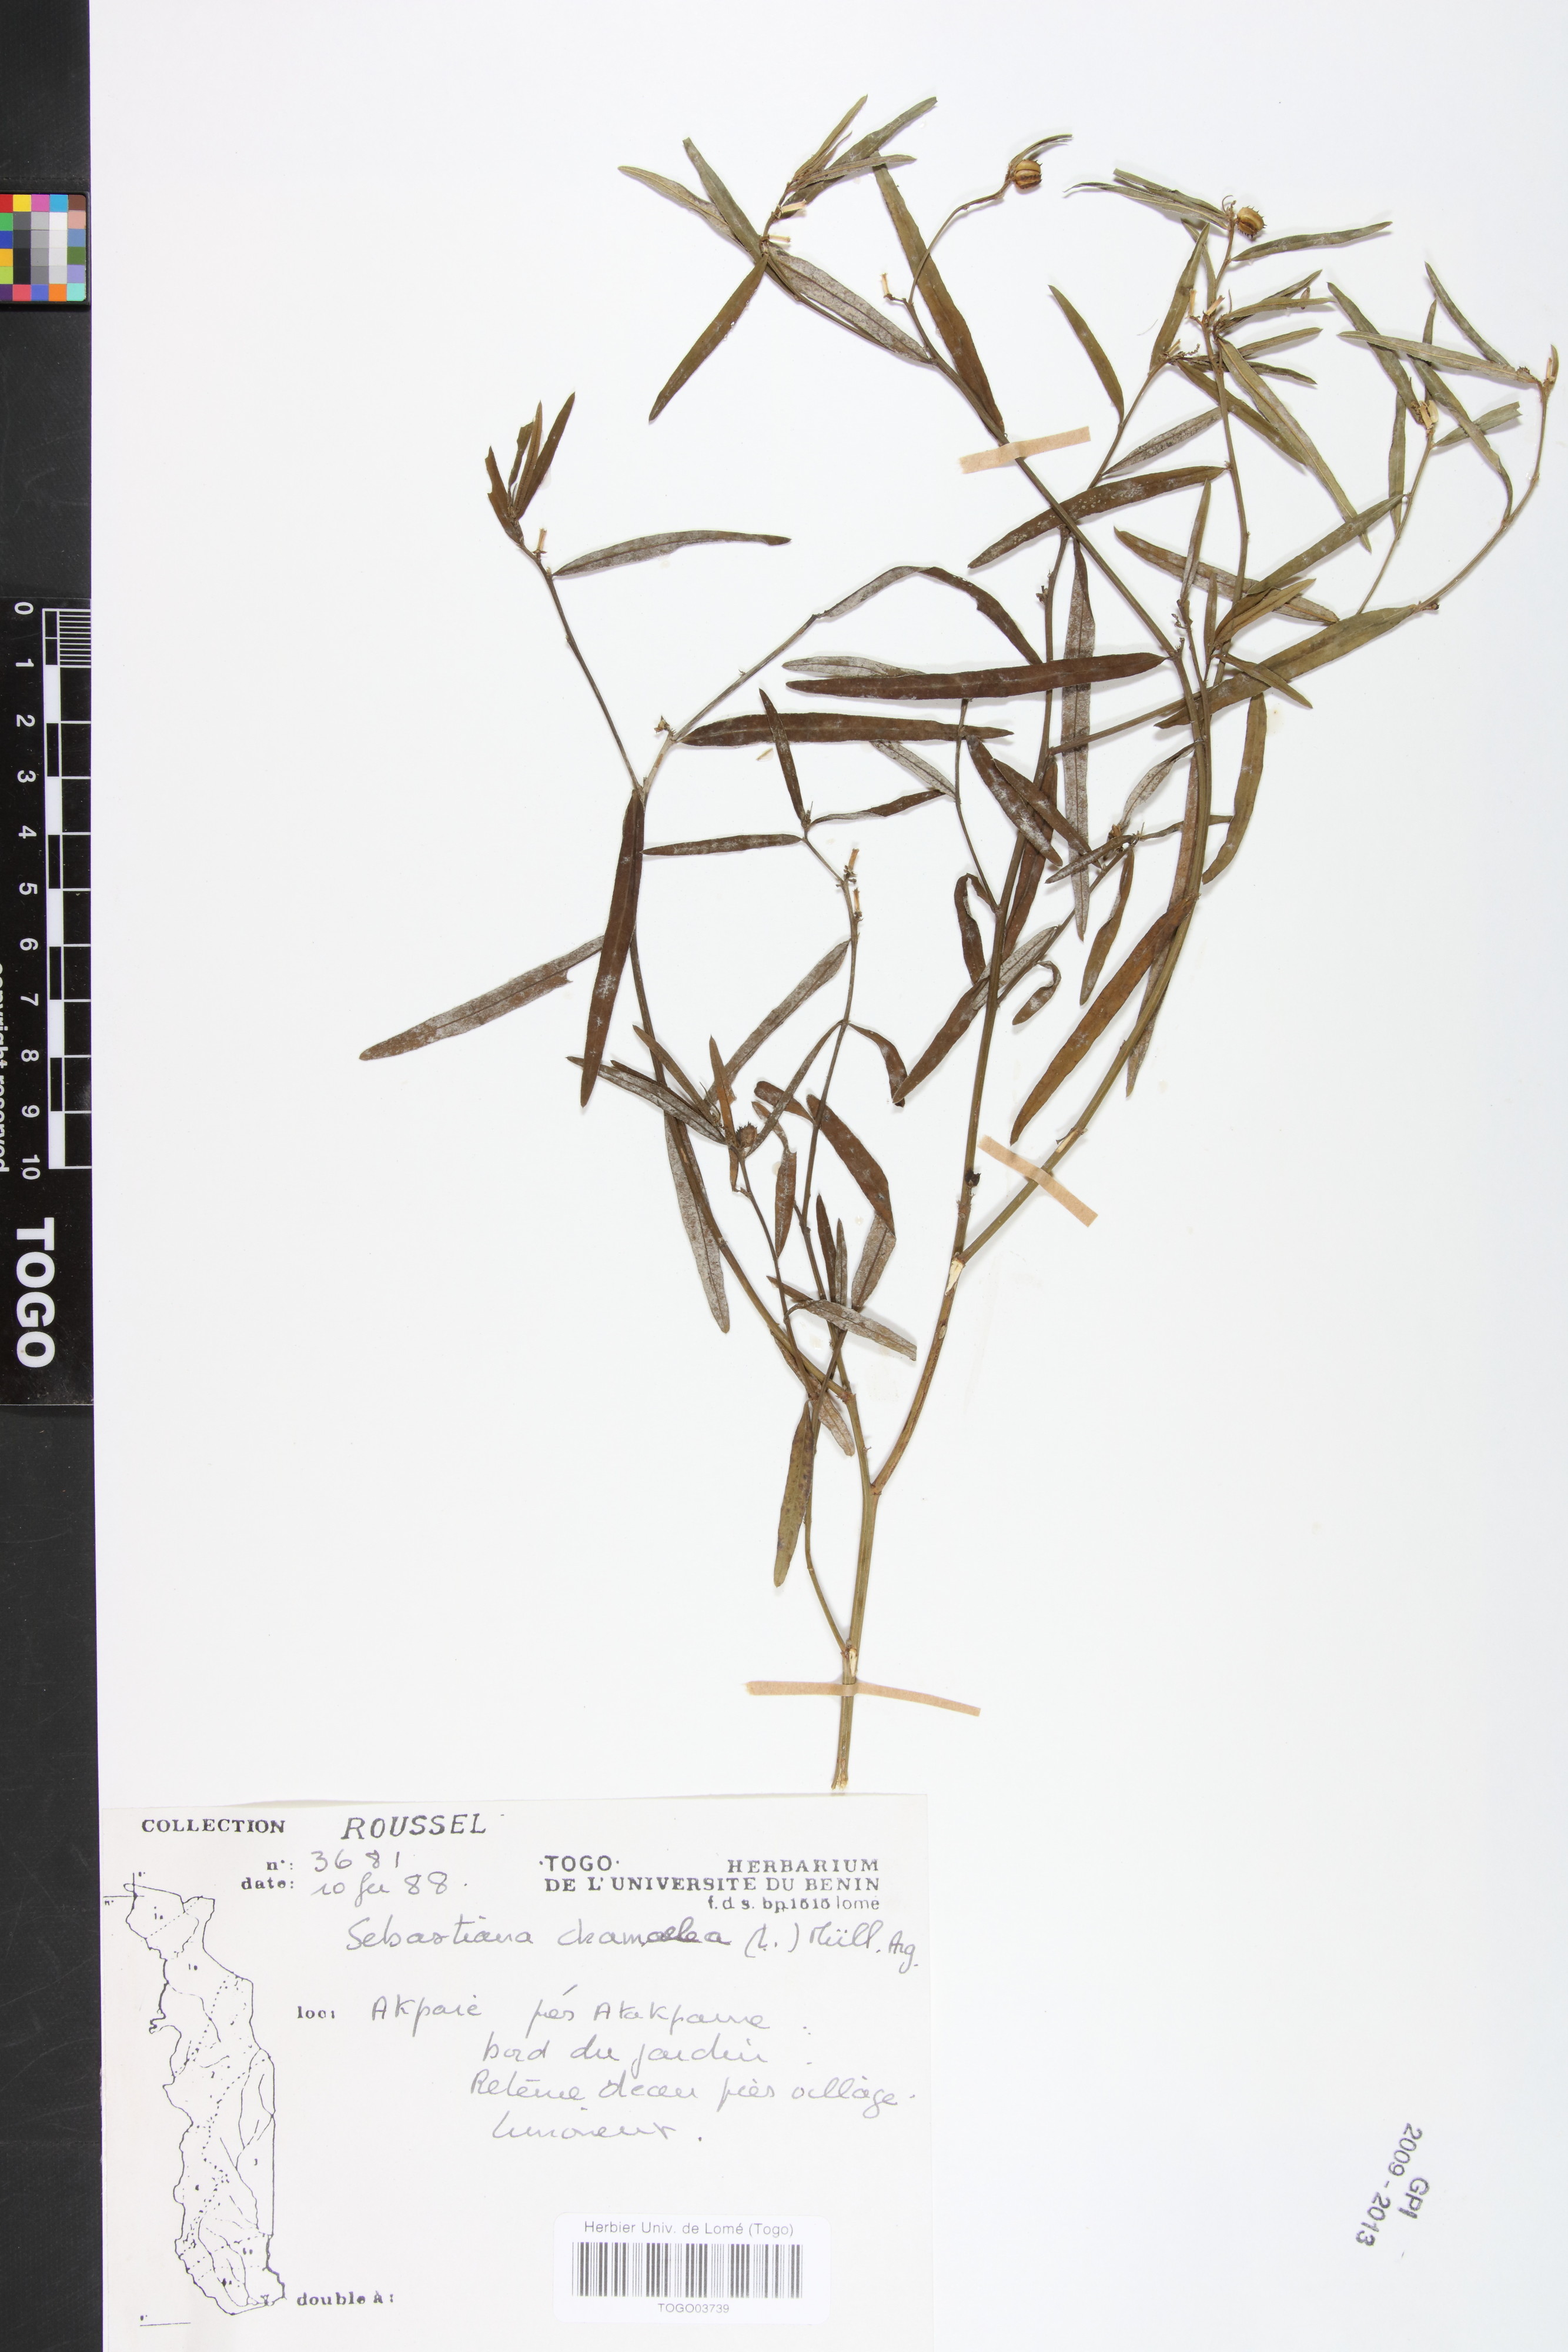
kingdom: Plantae
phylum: Tracheophyta
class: Magnoliopsida
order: Malpighiales
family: Euphorbiaceae
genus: Microstachys
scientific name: Microstachys chamaelea
